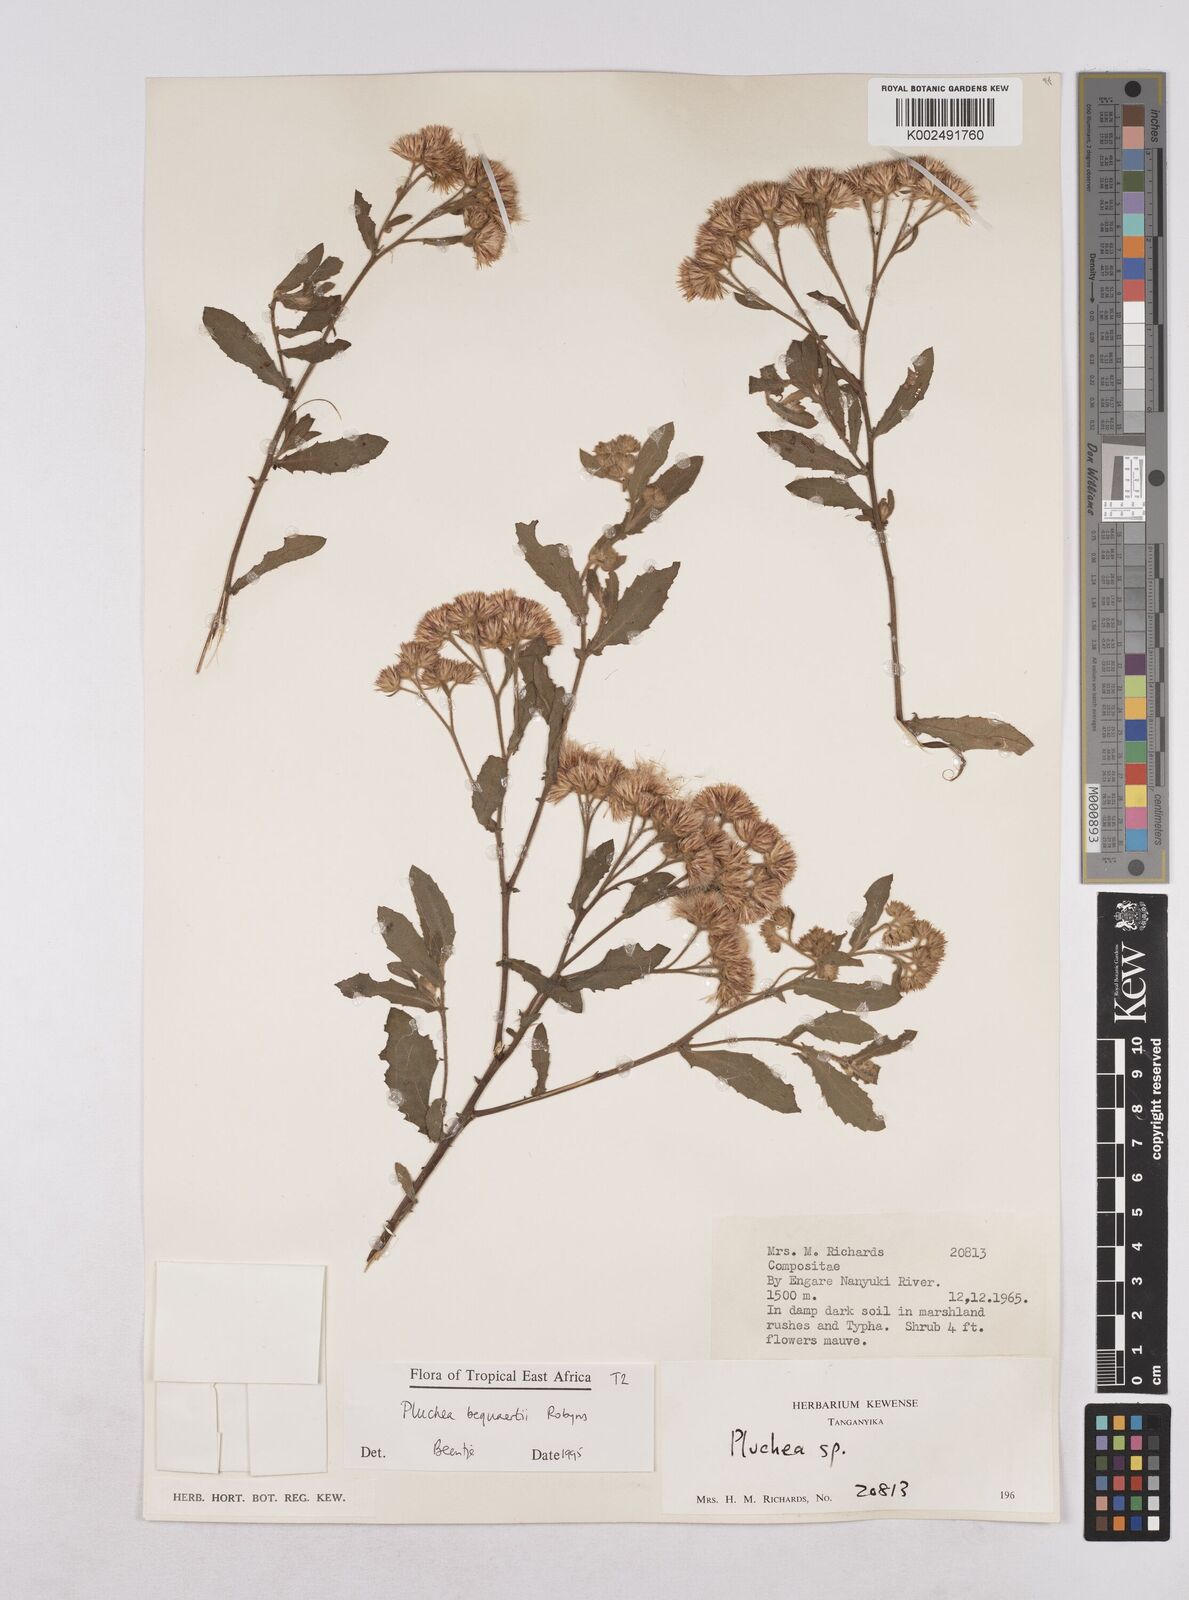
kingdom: Plantae
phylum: Tracheophyta
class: Magnoliopsida
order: Asterales
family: Asteraceae
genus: Pluchea
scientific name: Pluchea sordida
